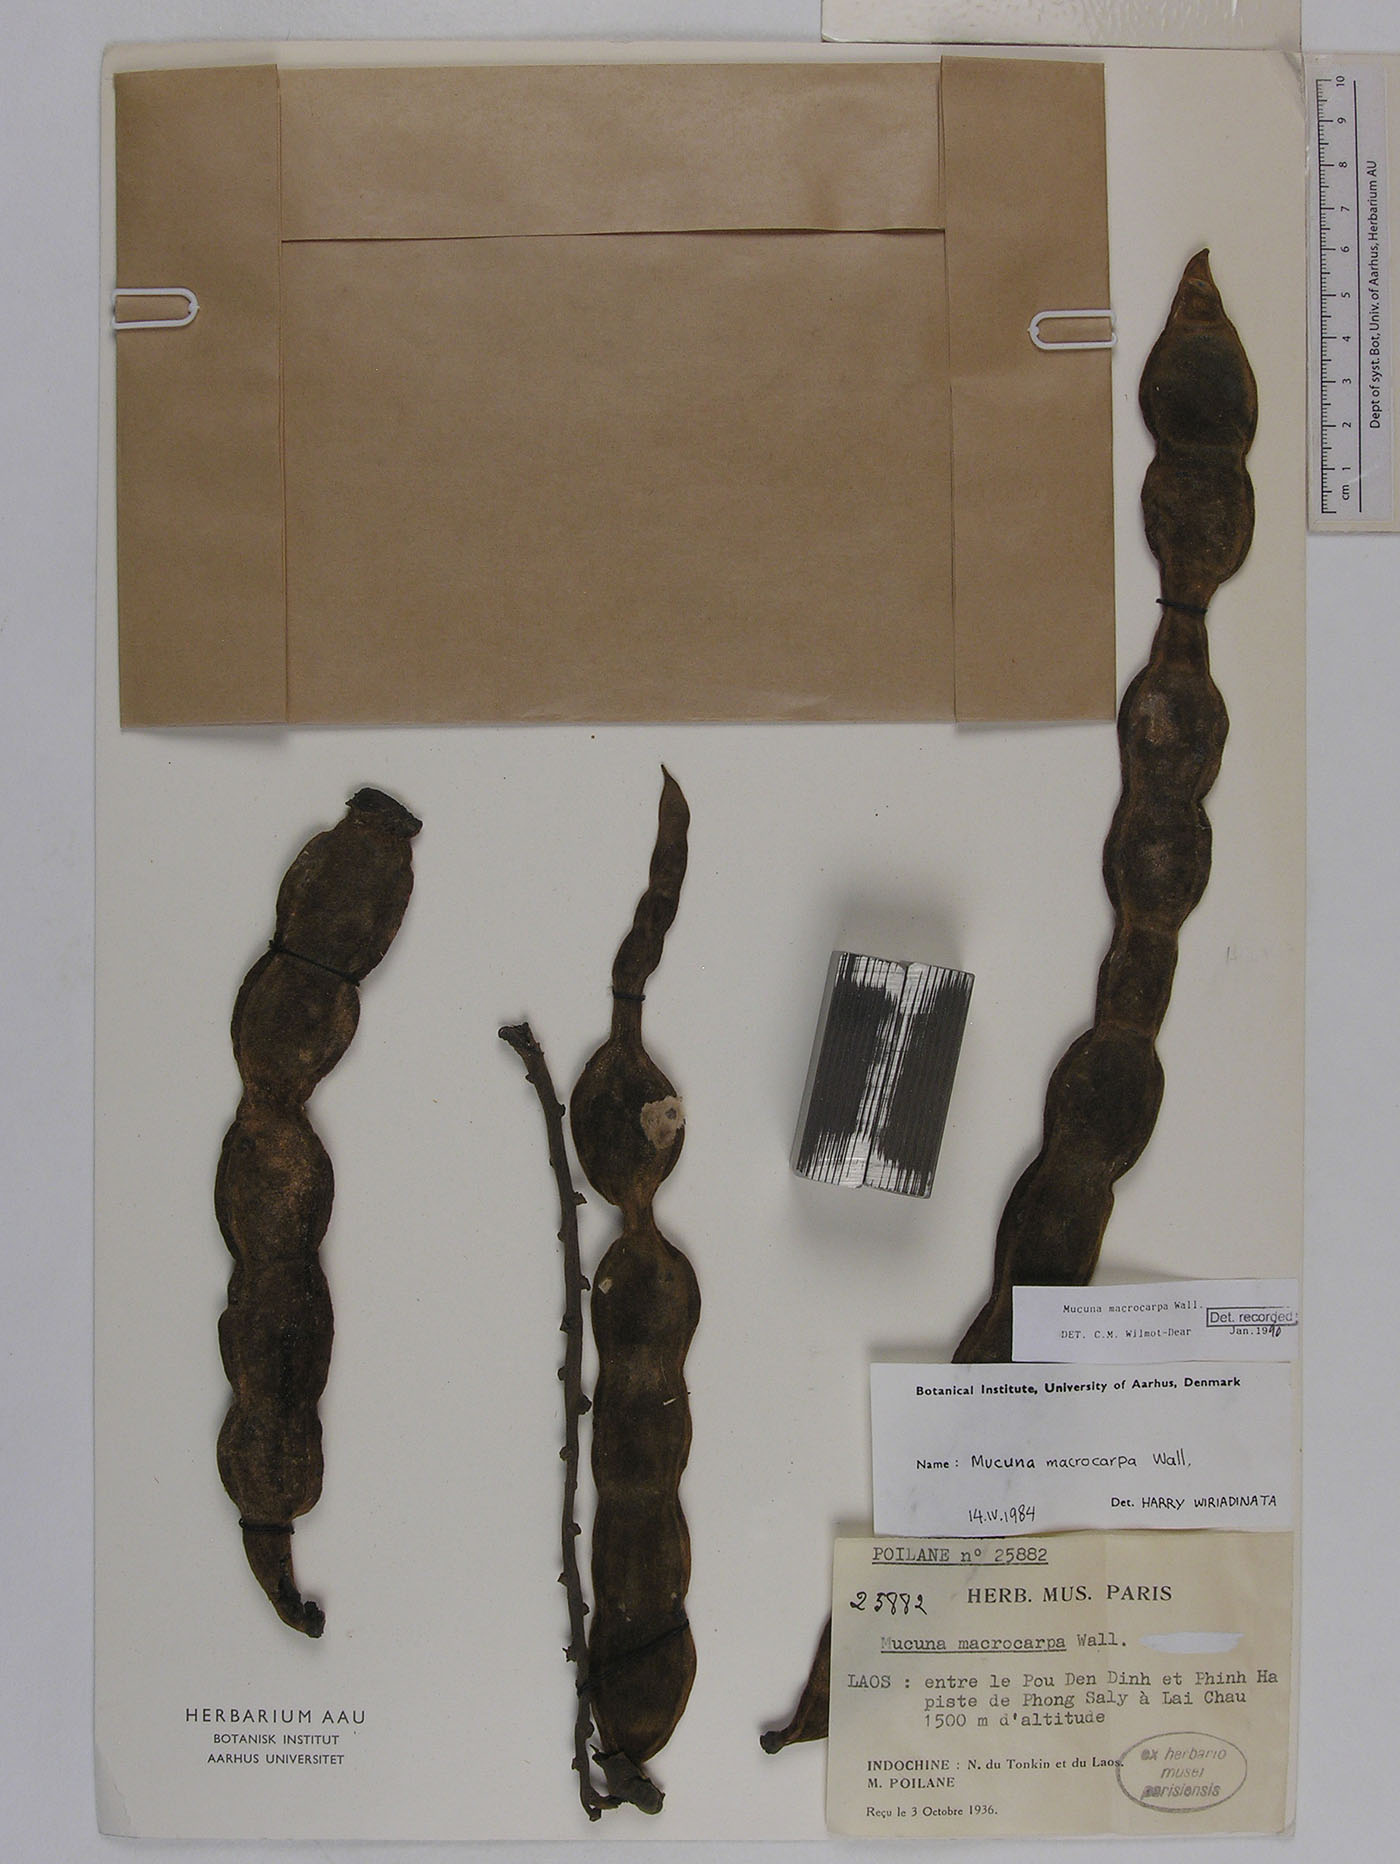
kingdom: Plantae
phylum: Tracheophyta
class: Magnoliopsida
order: Fabales
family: Fabaceae
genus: Mucuna
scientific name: Mucuna macrocarpa
